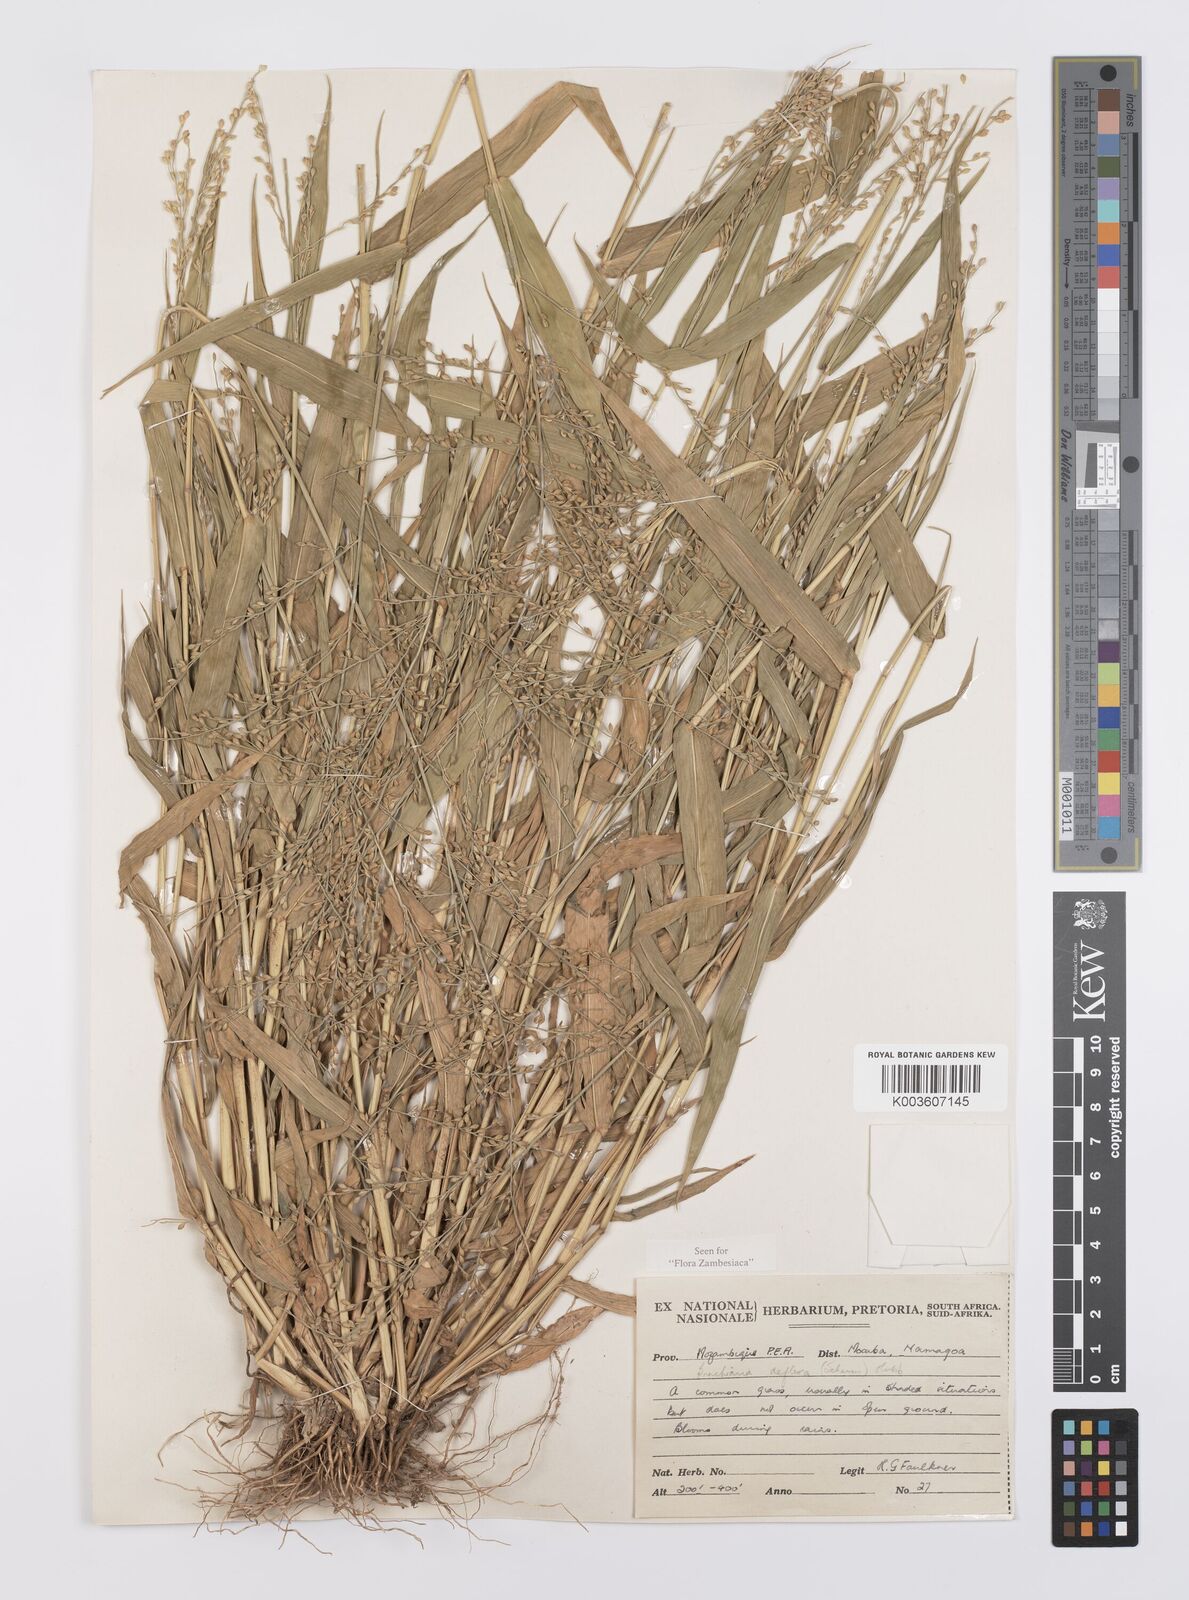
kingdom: Plantae
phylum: Tracheophyta
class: Liliopsida
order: Poales
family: Poaceae
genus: Urochloa
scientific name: Urochloa deflexa
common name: Guinea millet
